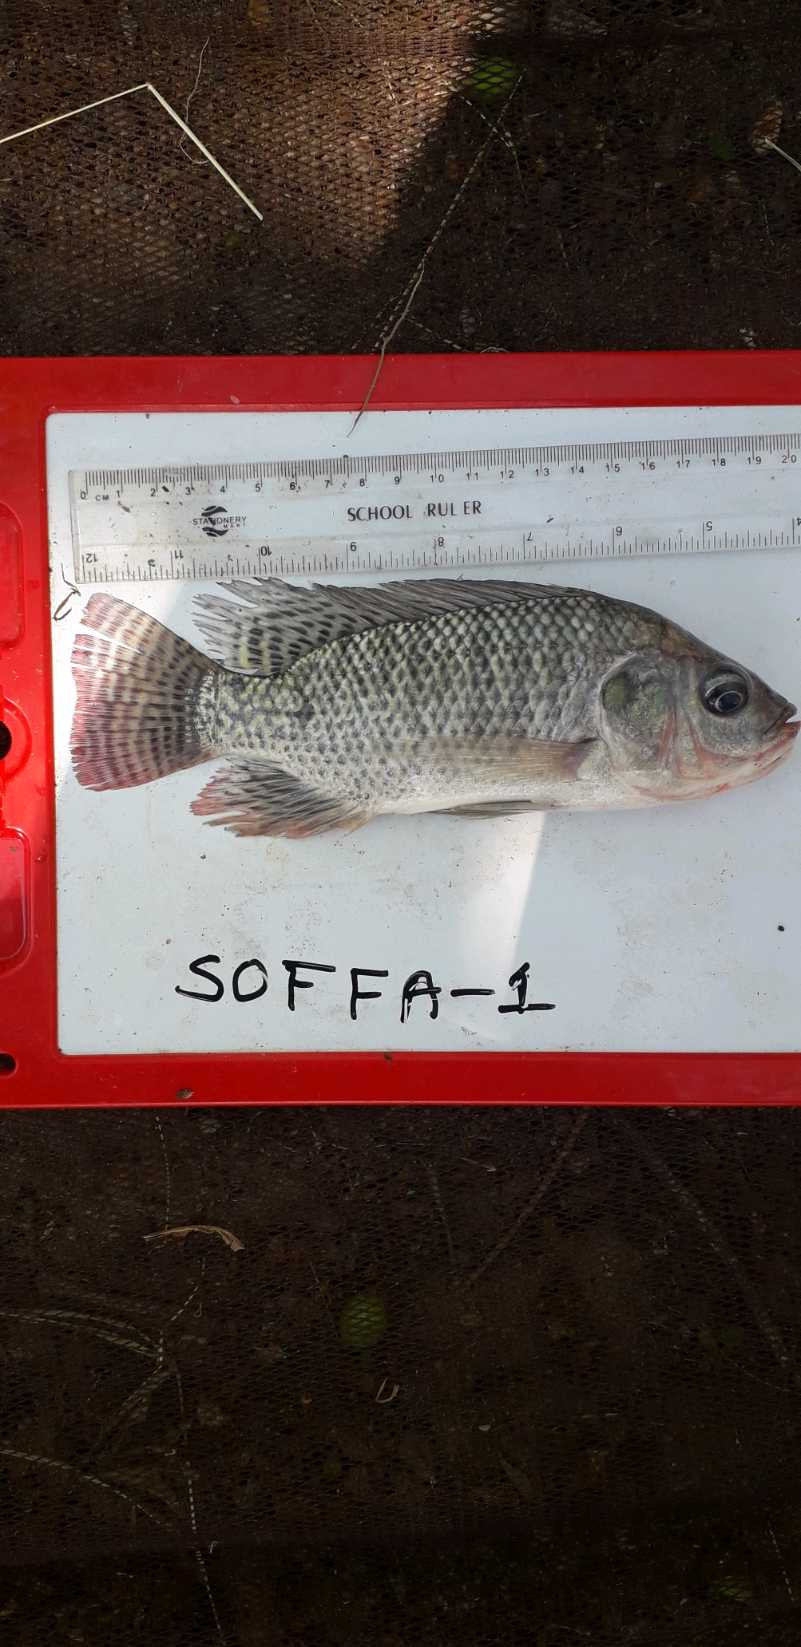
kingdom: Animalia
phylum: Chordata
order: Perciformes
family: Cichlidae
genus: Oreochromis
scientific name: Oreochromis
